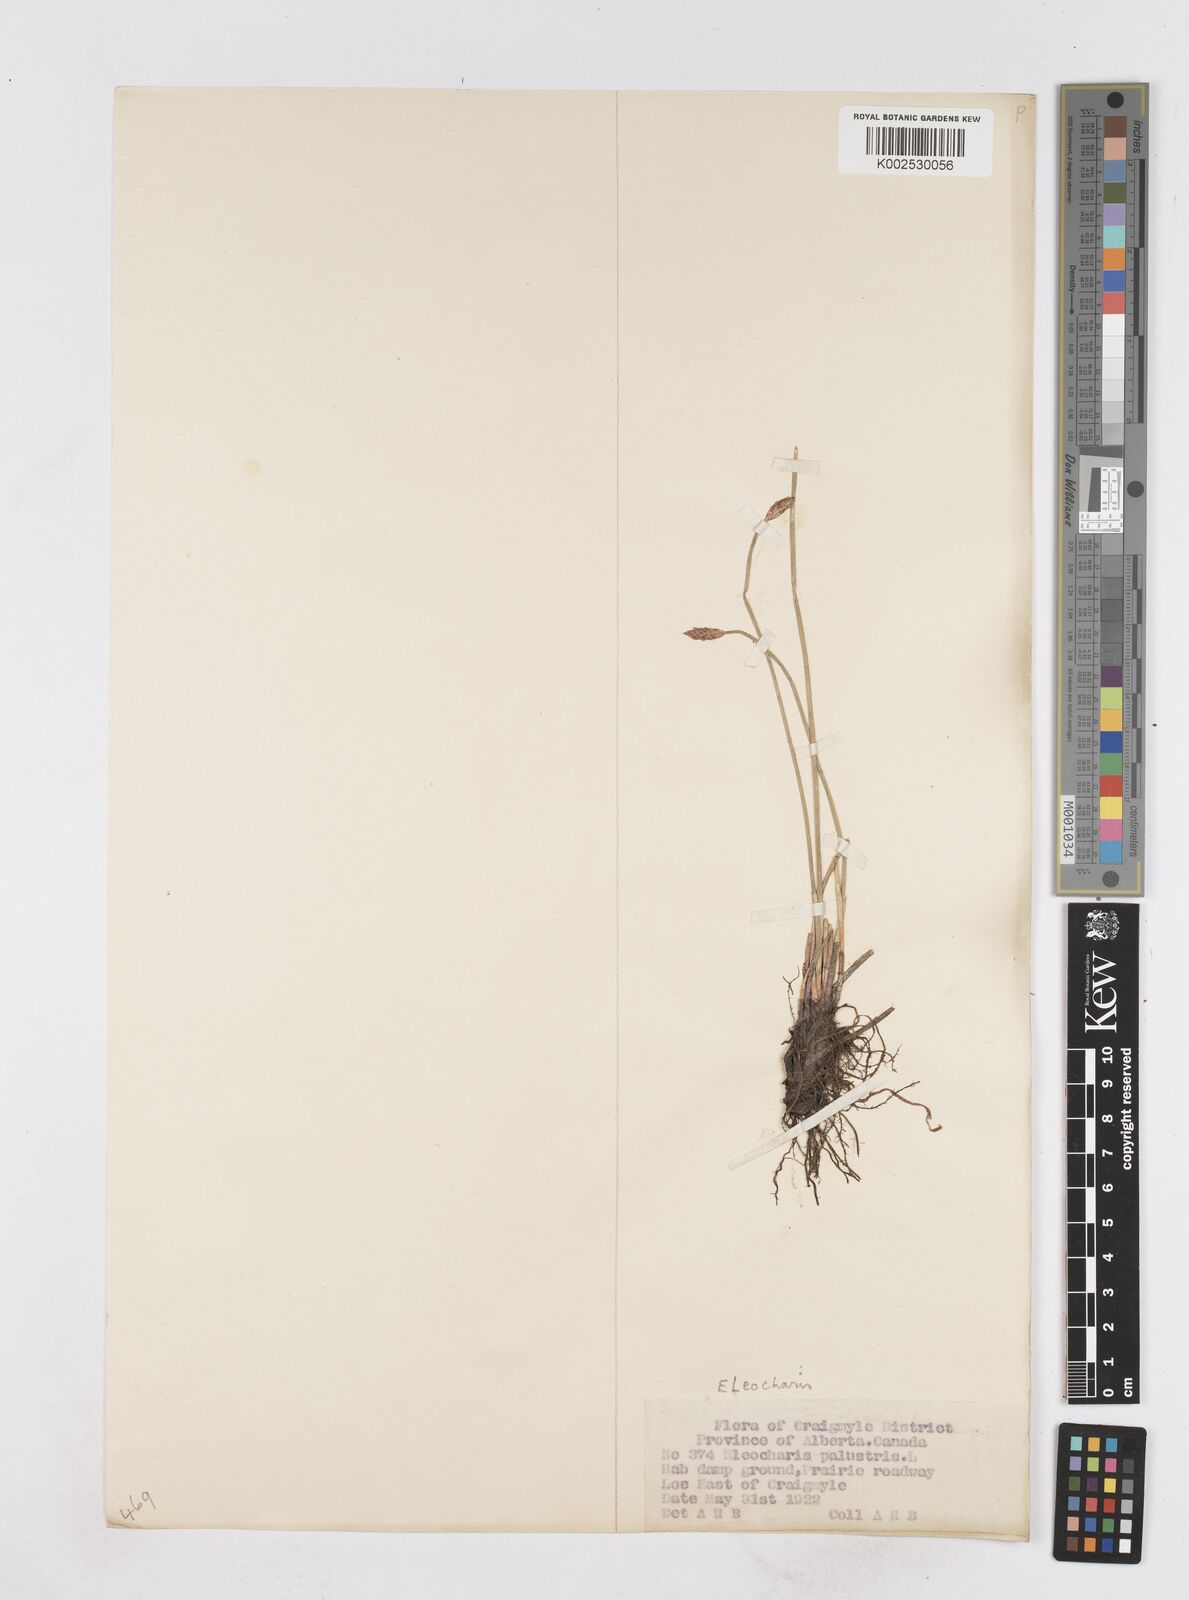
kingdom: Plantae
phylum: Tracheophyta
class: Liliopsida
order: Poales
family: Cyperaceae
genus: Eleocharis
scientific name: Eleocharis palustris
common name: Common spike-rush
